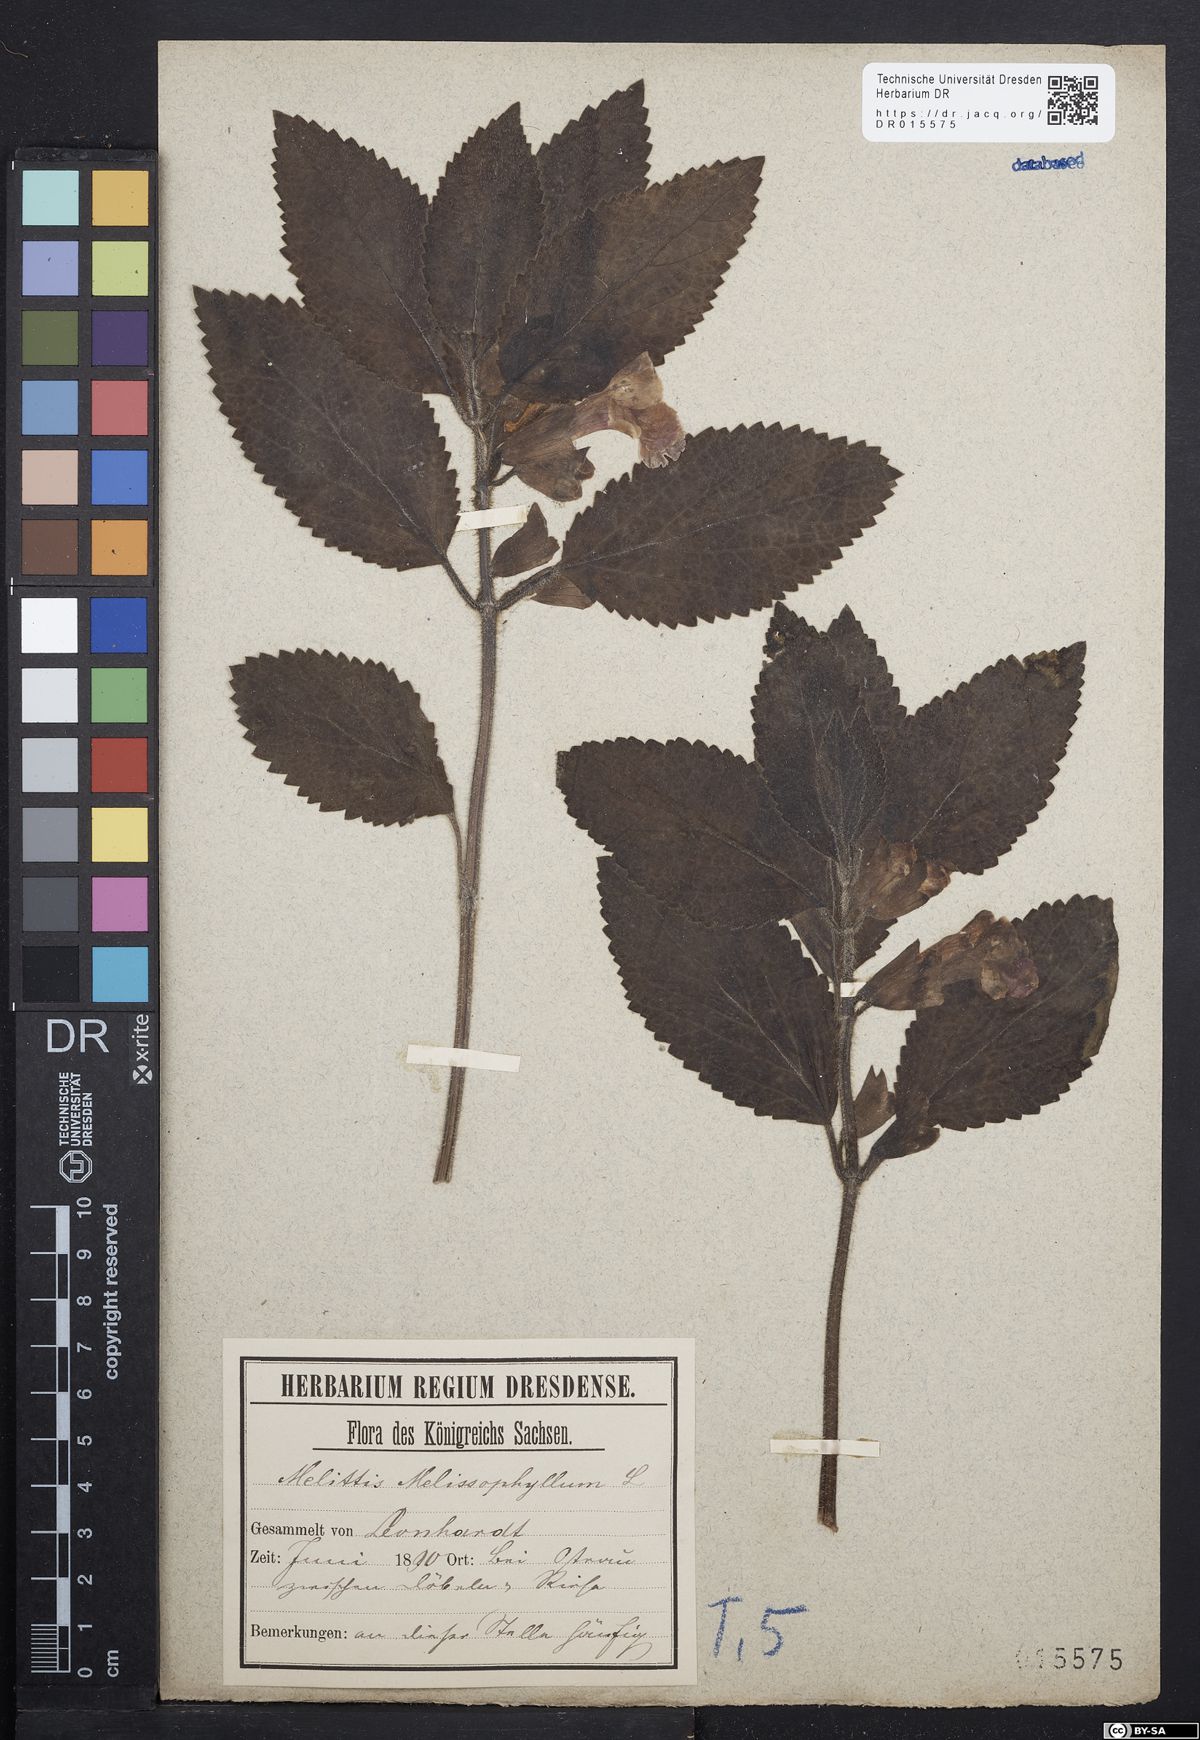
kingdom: Plantae
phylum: Tracheophyta
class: Magnoliopsida
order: Lamiales
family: Lamiaceae
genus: Melittis
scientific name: Melittis melissophyllum
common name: Bastard balm
